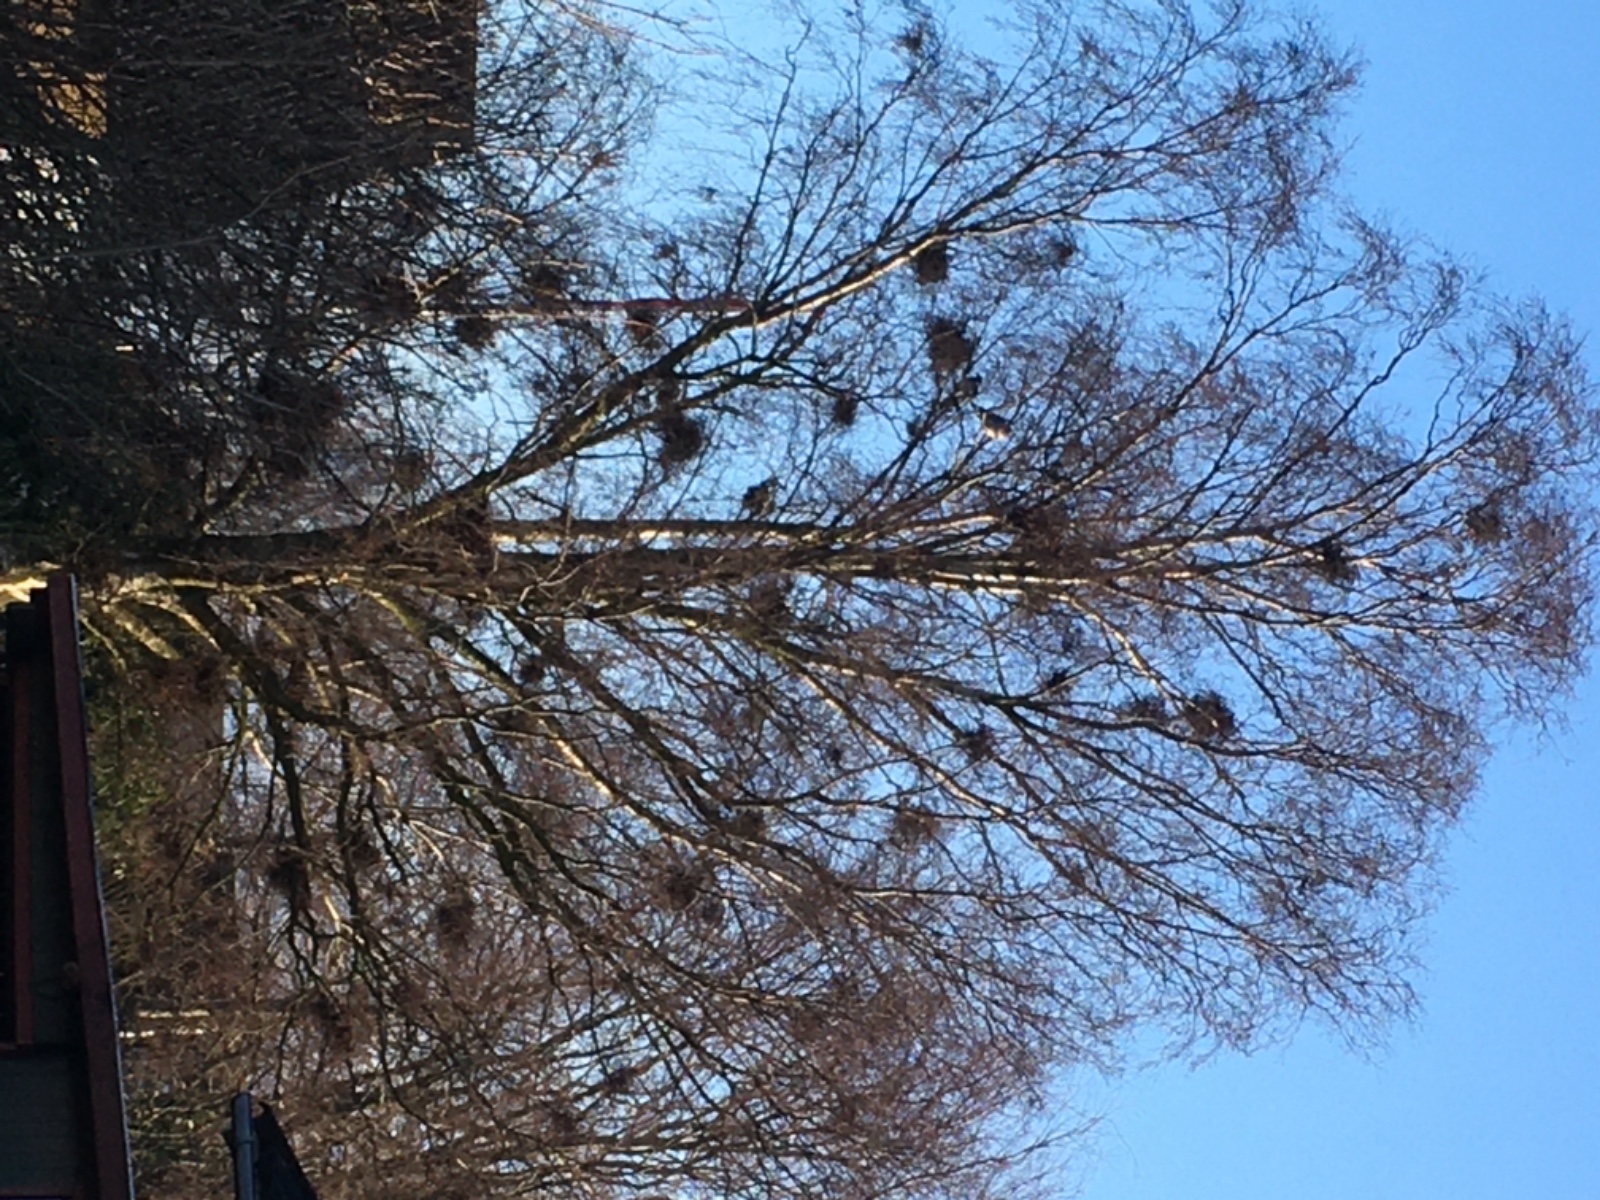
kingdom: Fungi
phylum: Ascomycota
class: Taphrinomycetes
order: Taphrinales
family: Taphrinaceae
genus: Taphrina
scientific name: Taphrina betulina
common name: hekse-sækdug
